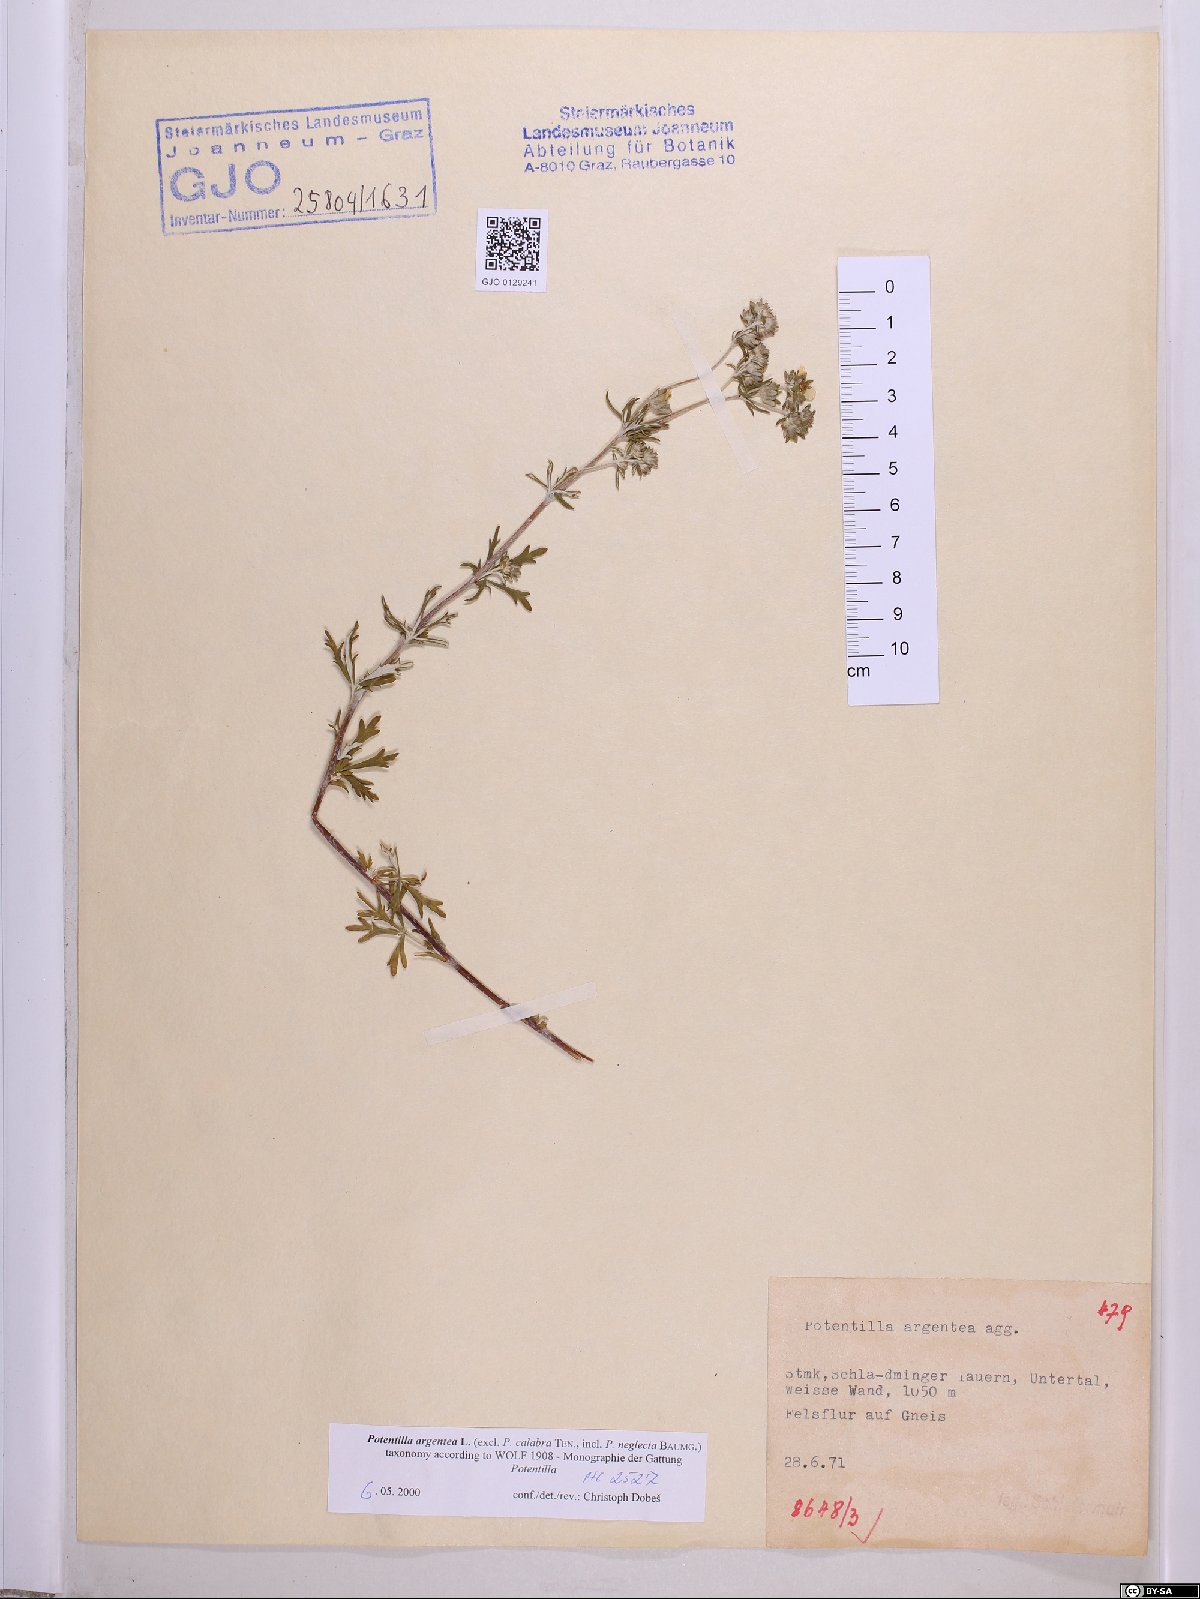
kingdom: Plantae
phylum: Tracheophyta
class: Magnoliopsida
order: Rosales
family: Rosaceae
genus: Potentilla
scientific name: Potentilla argentea
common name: Hoary cinquefoil
